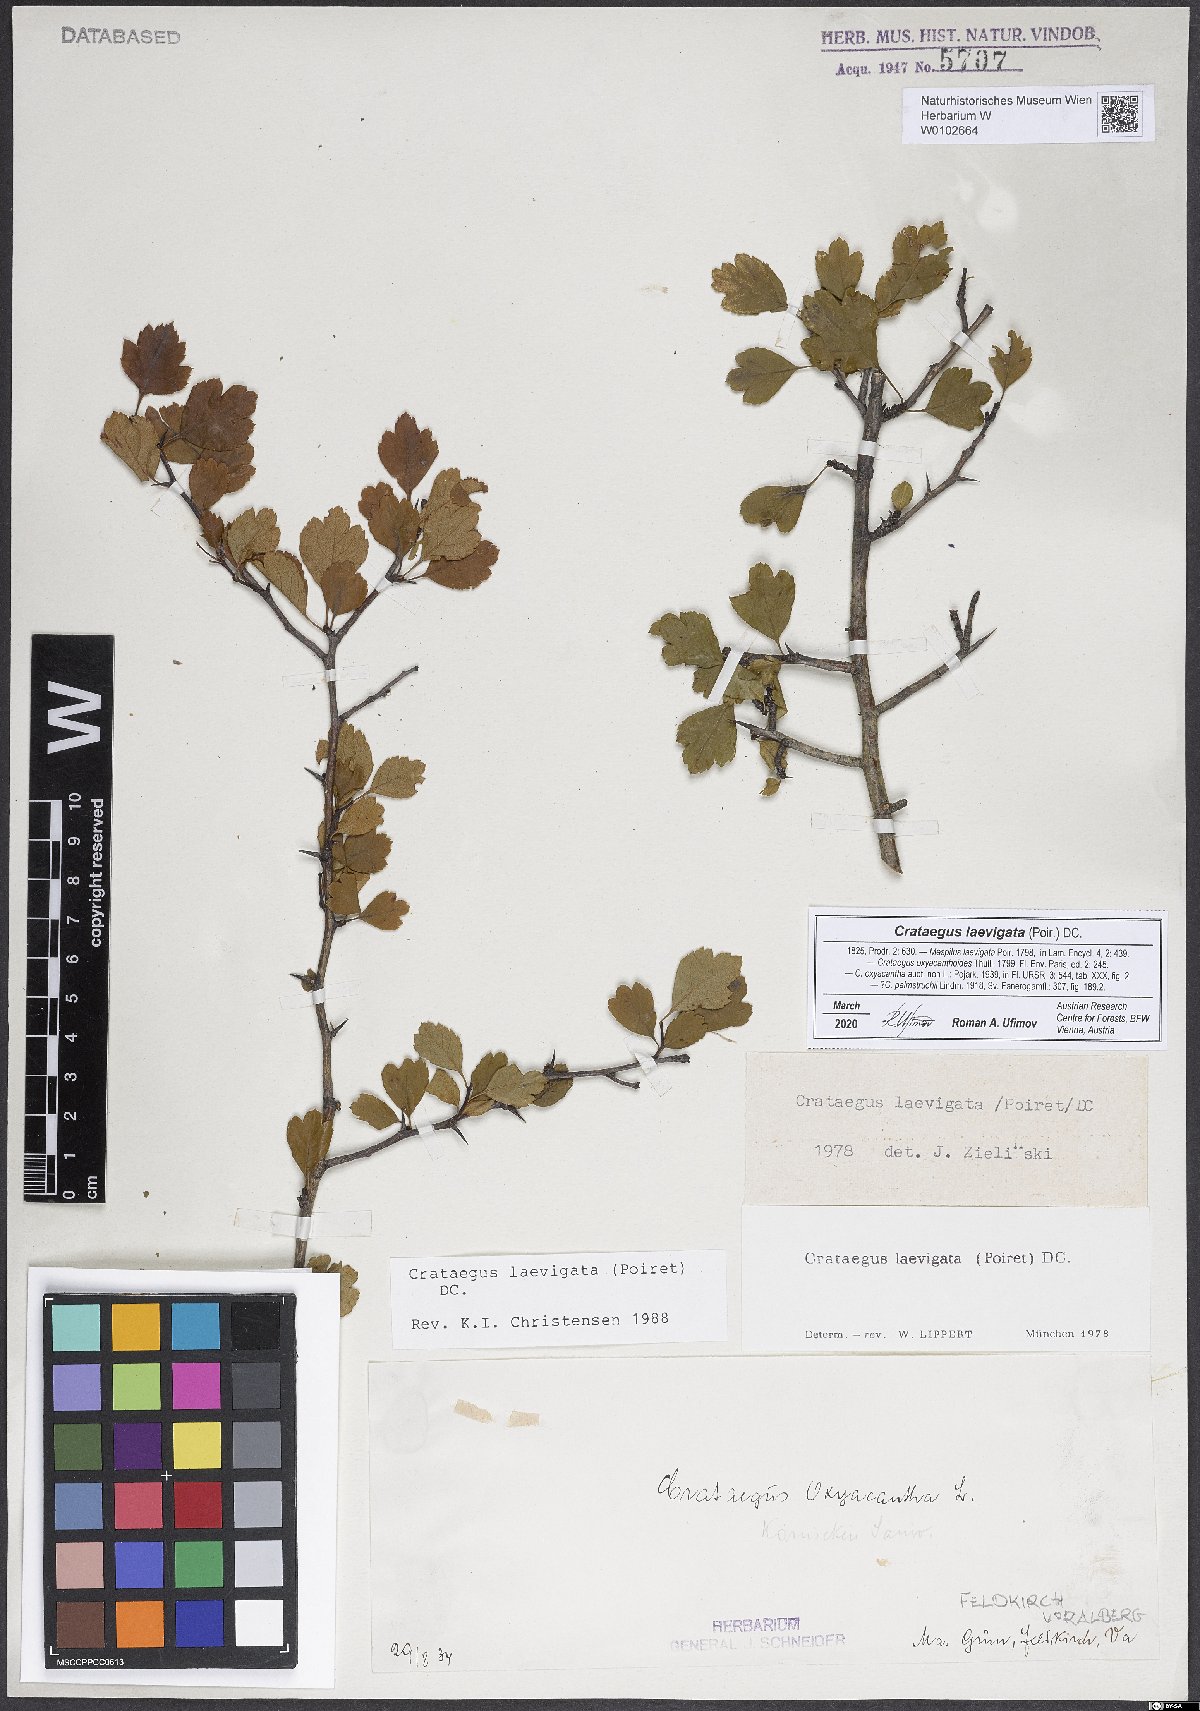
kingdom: Plantae
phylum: Tracheophyta
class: Magnoliopsida
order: Rosales
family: Rosaceae
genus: Crataegus
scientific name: Crataegus laevigata
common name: Midland hawthorn
